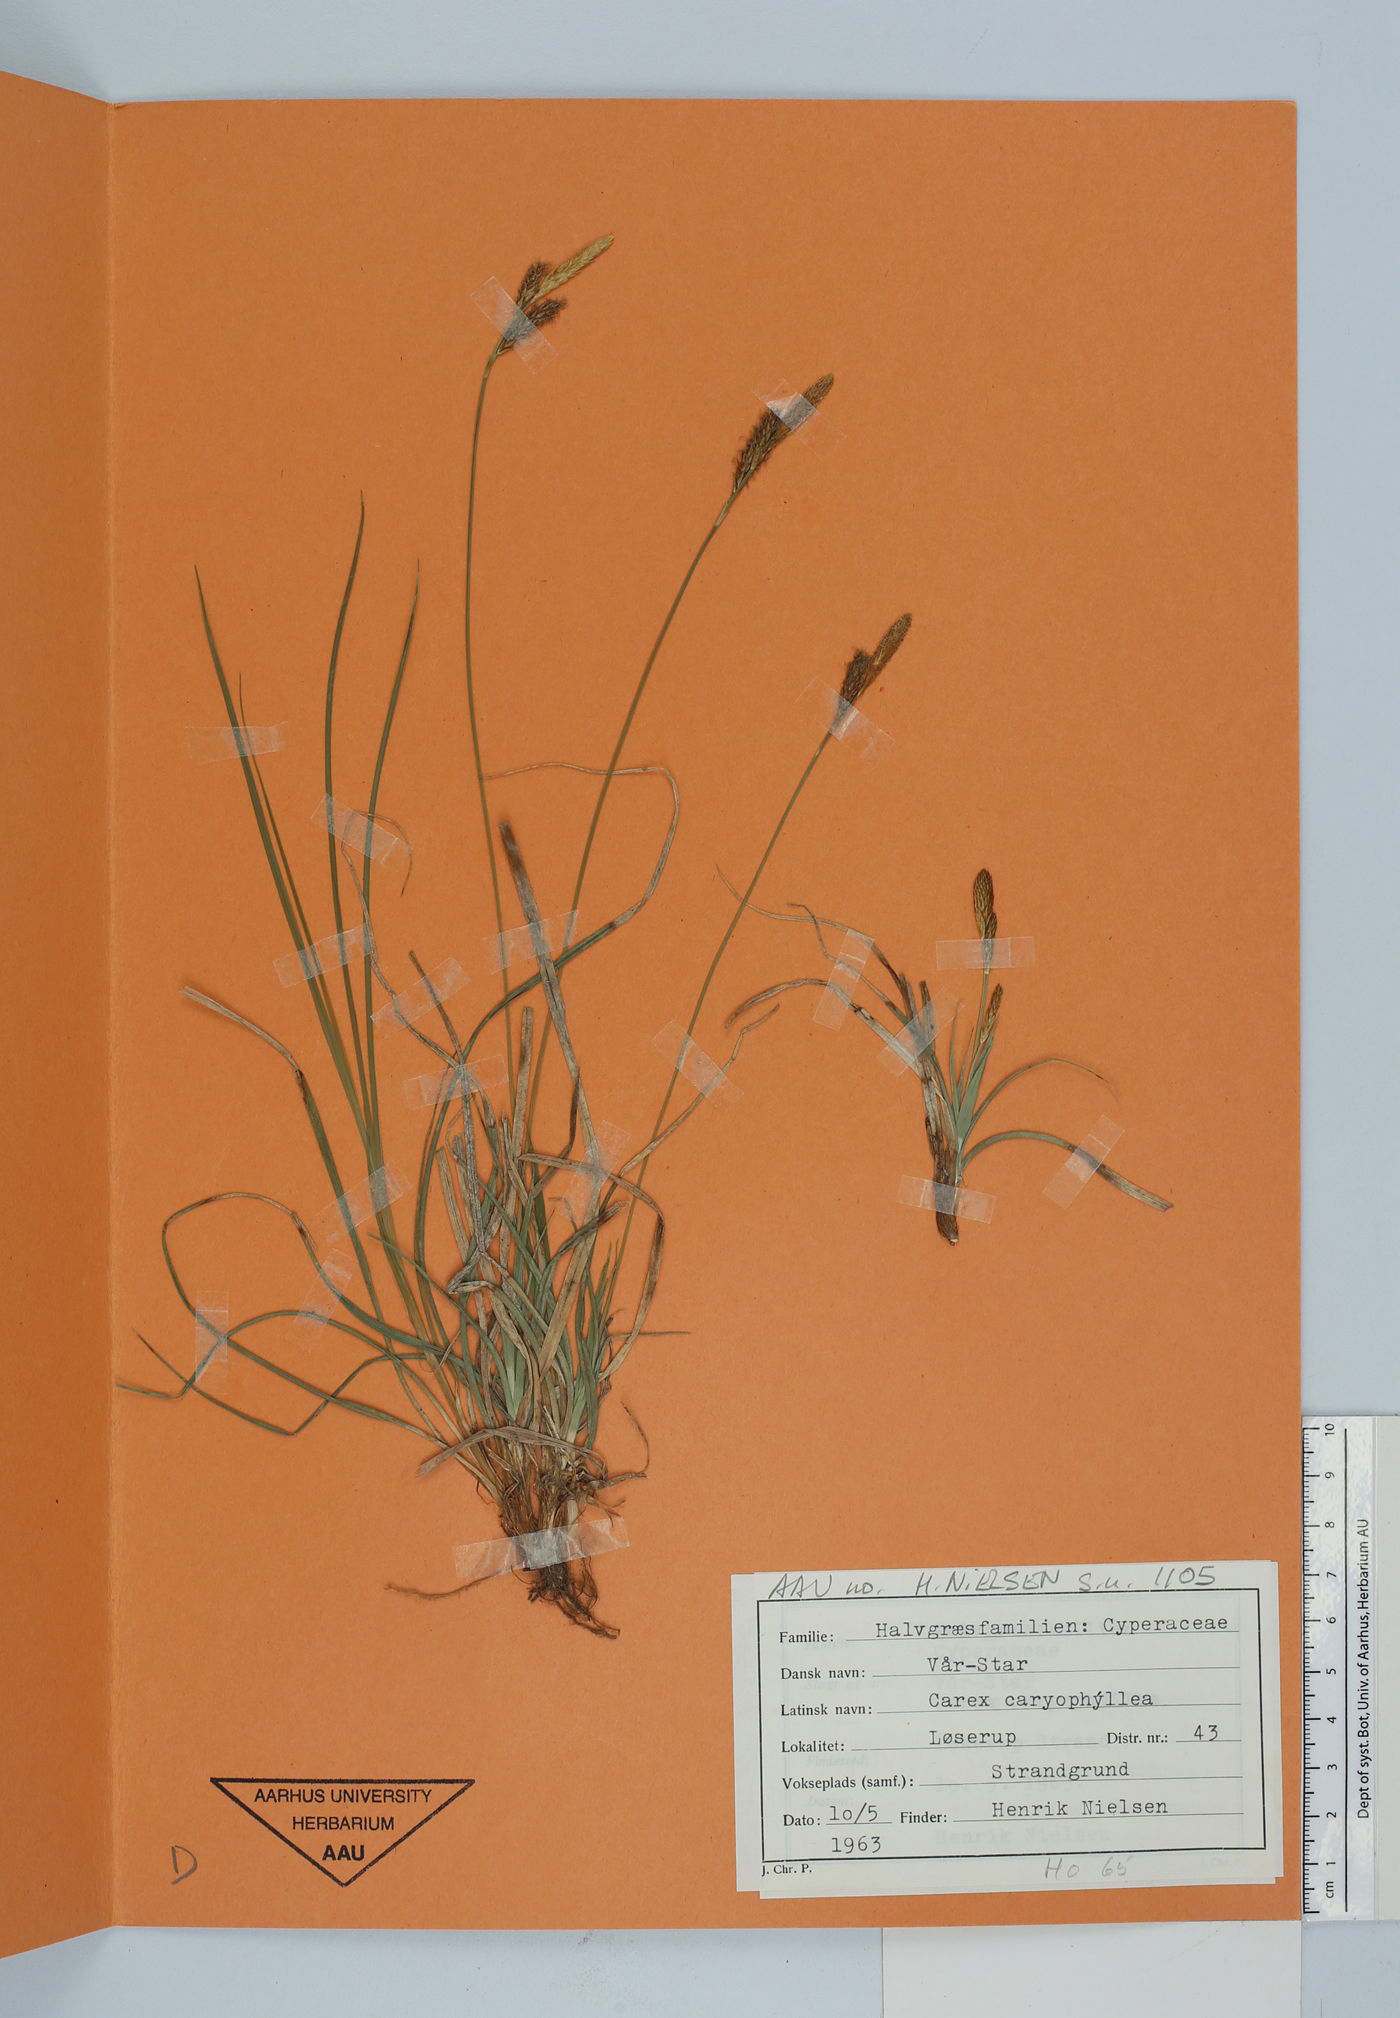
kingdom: Plantae
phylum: Tracheophyta
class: Liliopsida
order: Poales
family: Cyperaceae
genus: Carex
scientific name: Carex caryophyllea
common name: Spring sedge
